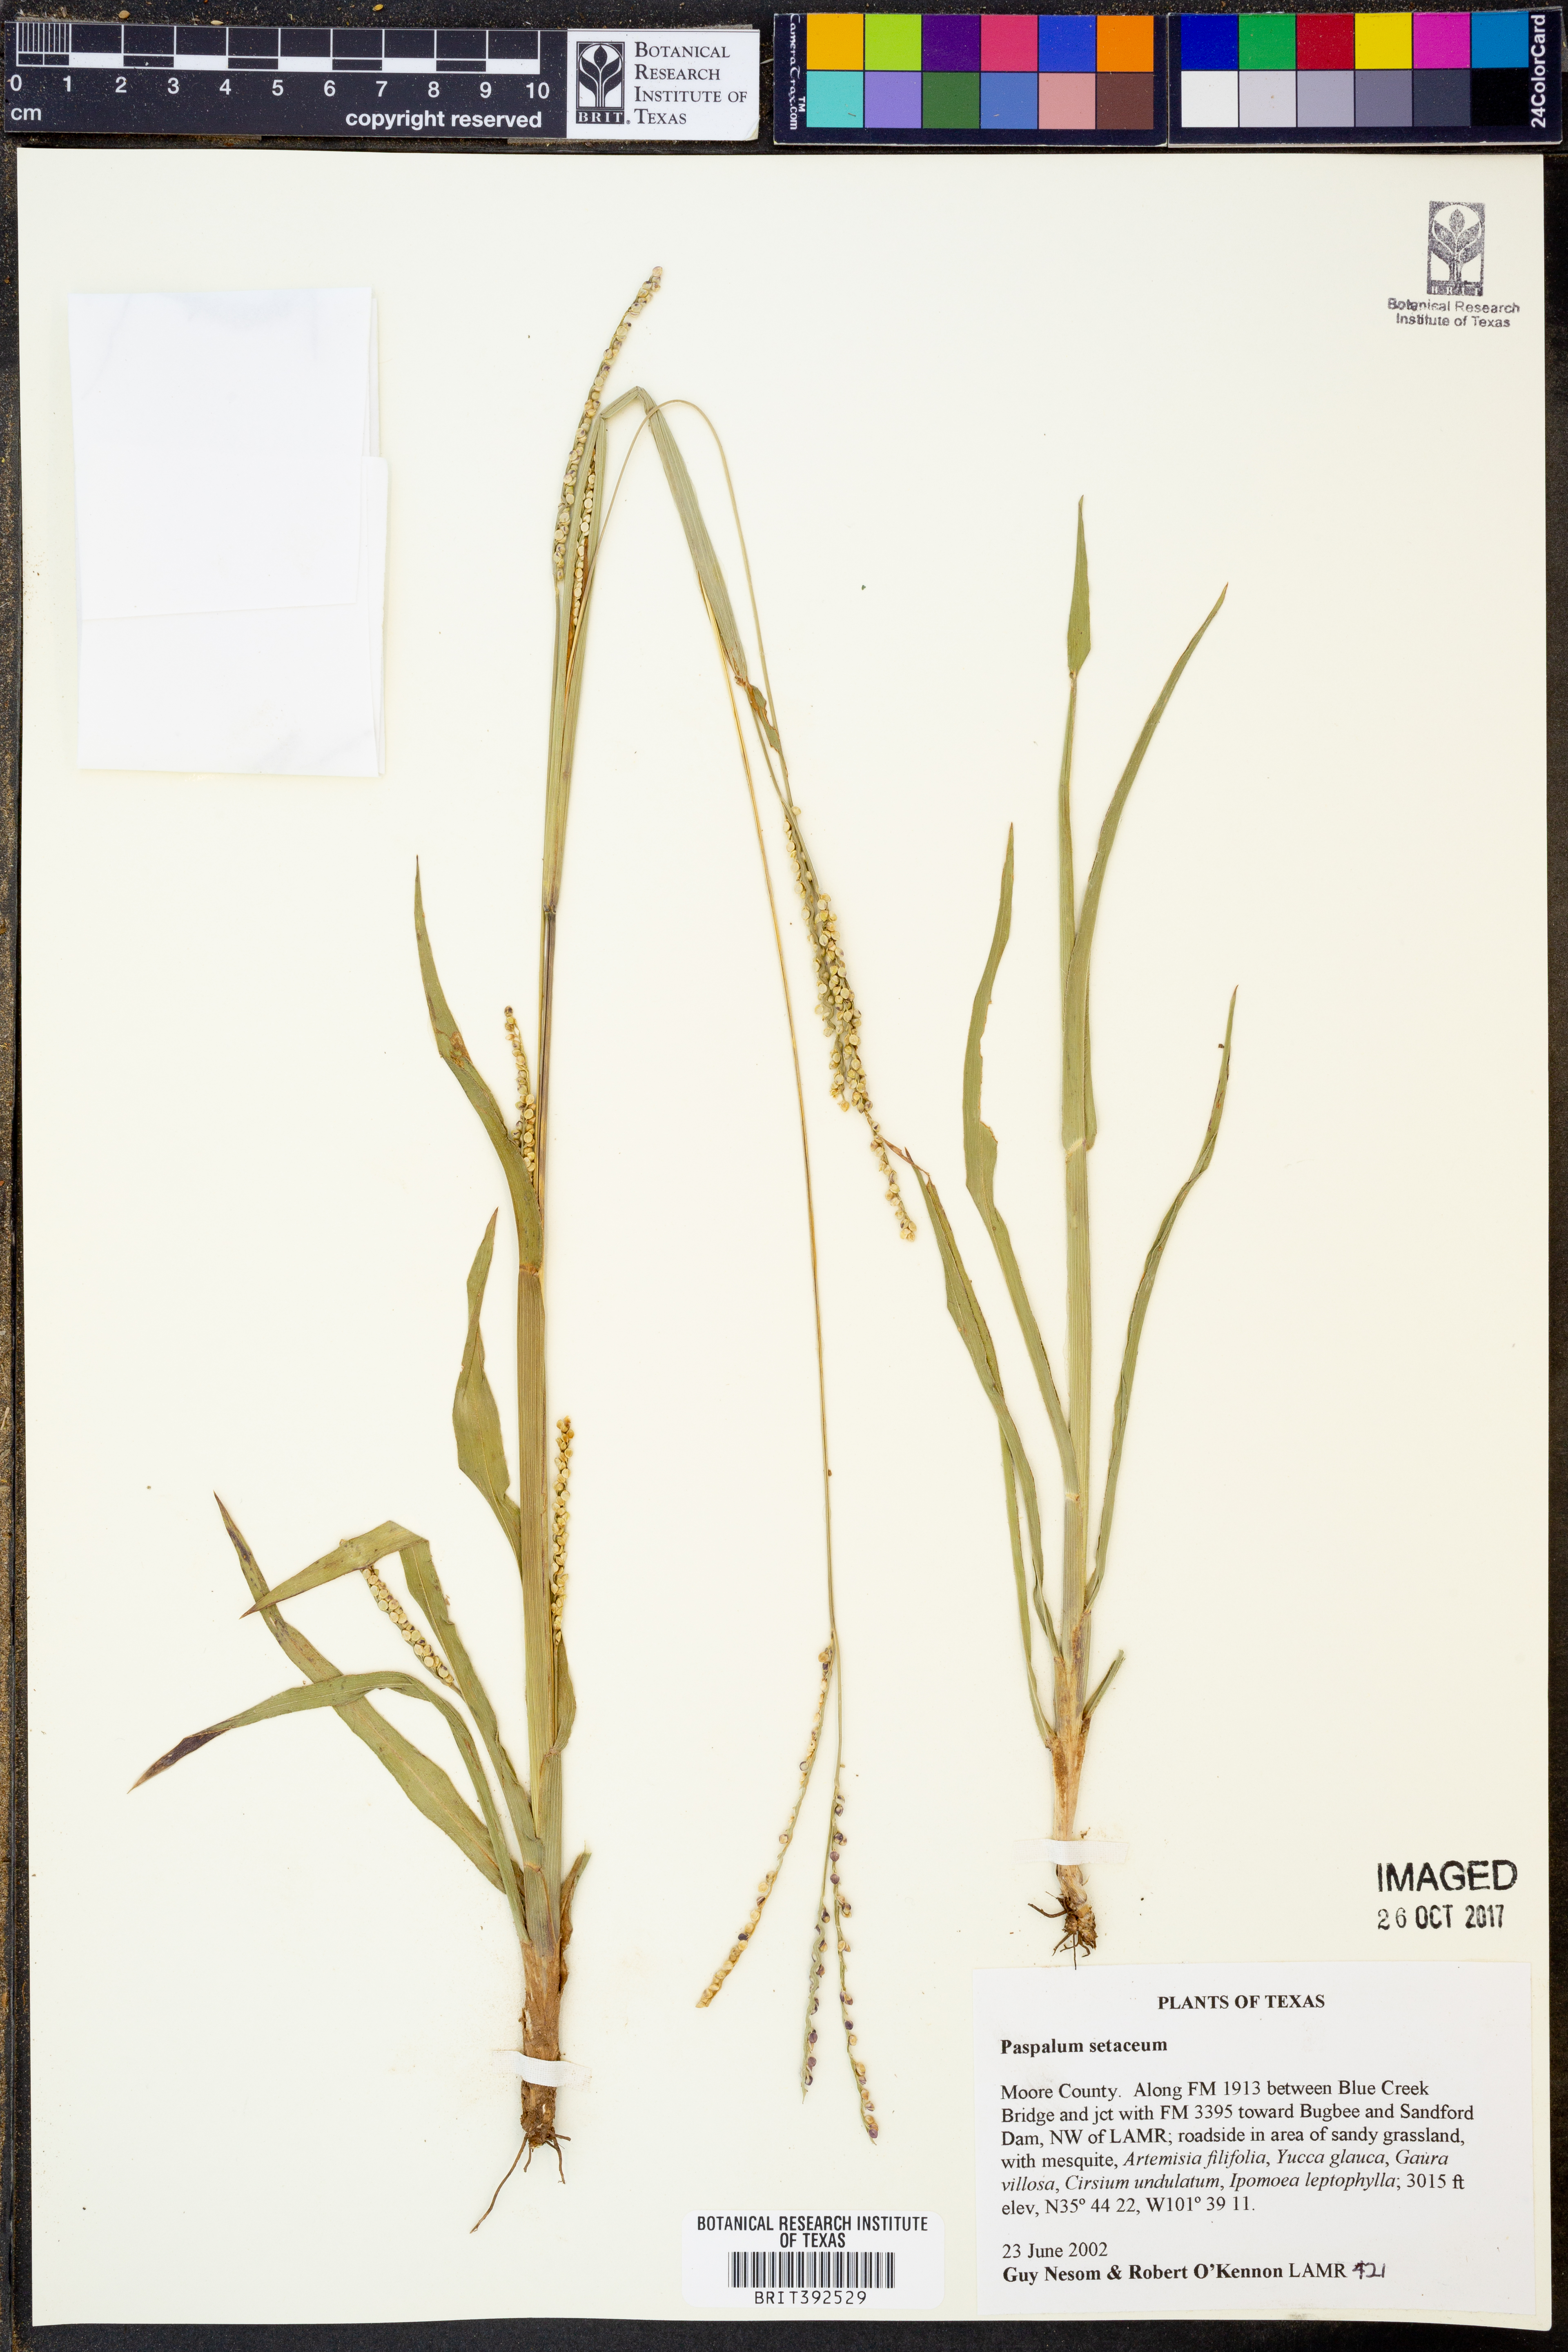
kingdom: Plantae
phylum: Tracheophyta
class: Liliopsida
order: Poales
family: Poaceae
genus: Paspalum
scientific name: Paspalum setaceum
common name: Slender paspalum
